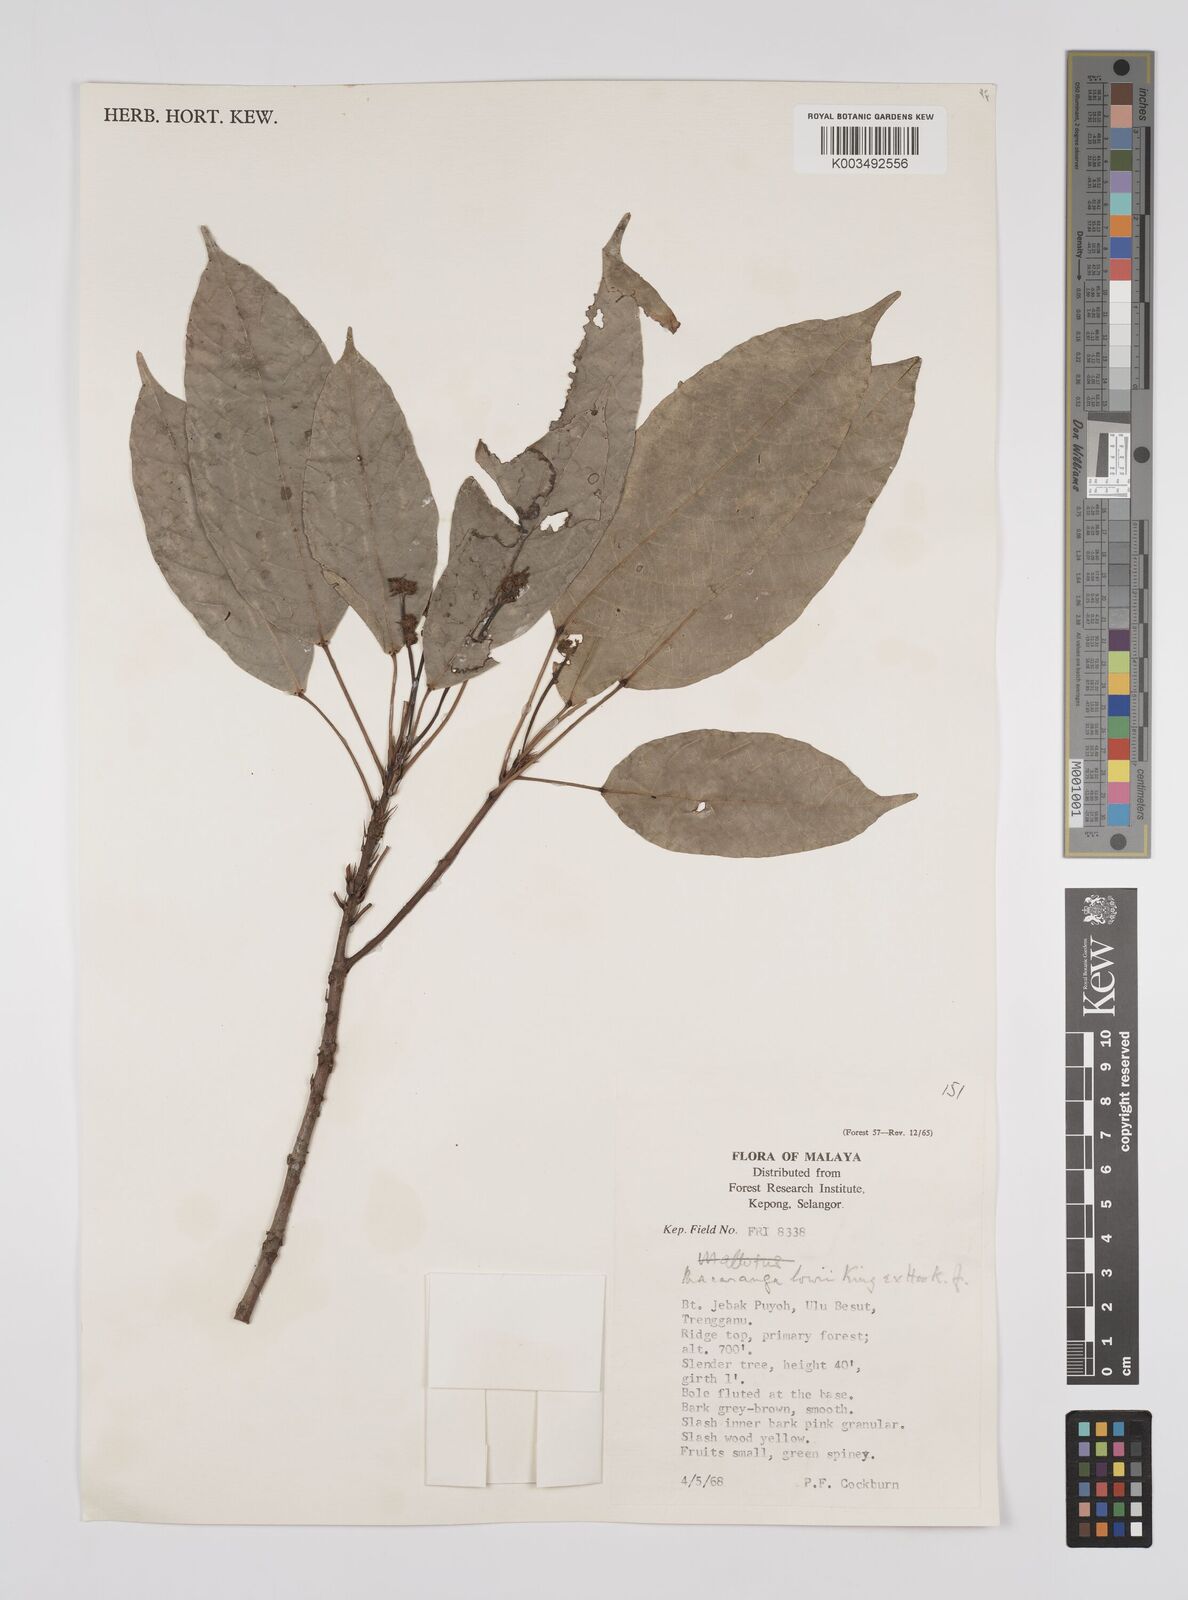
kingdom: Plantae
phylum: Tracheophyta
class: Magnoliopsida
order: Malpighiales
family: Euphorbiaceae
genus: Macaranga
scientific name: Macaranga lowii
